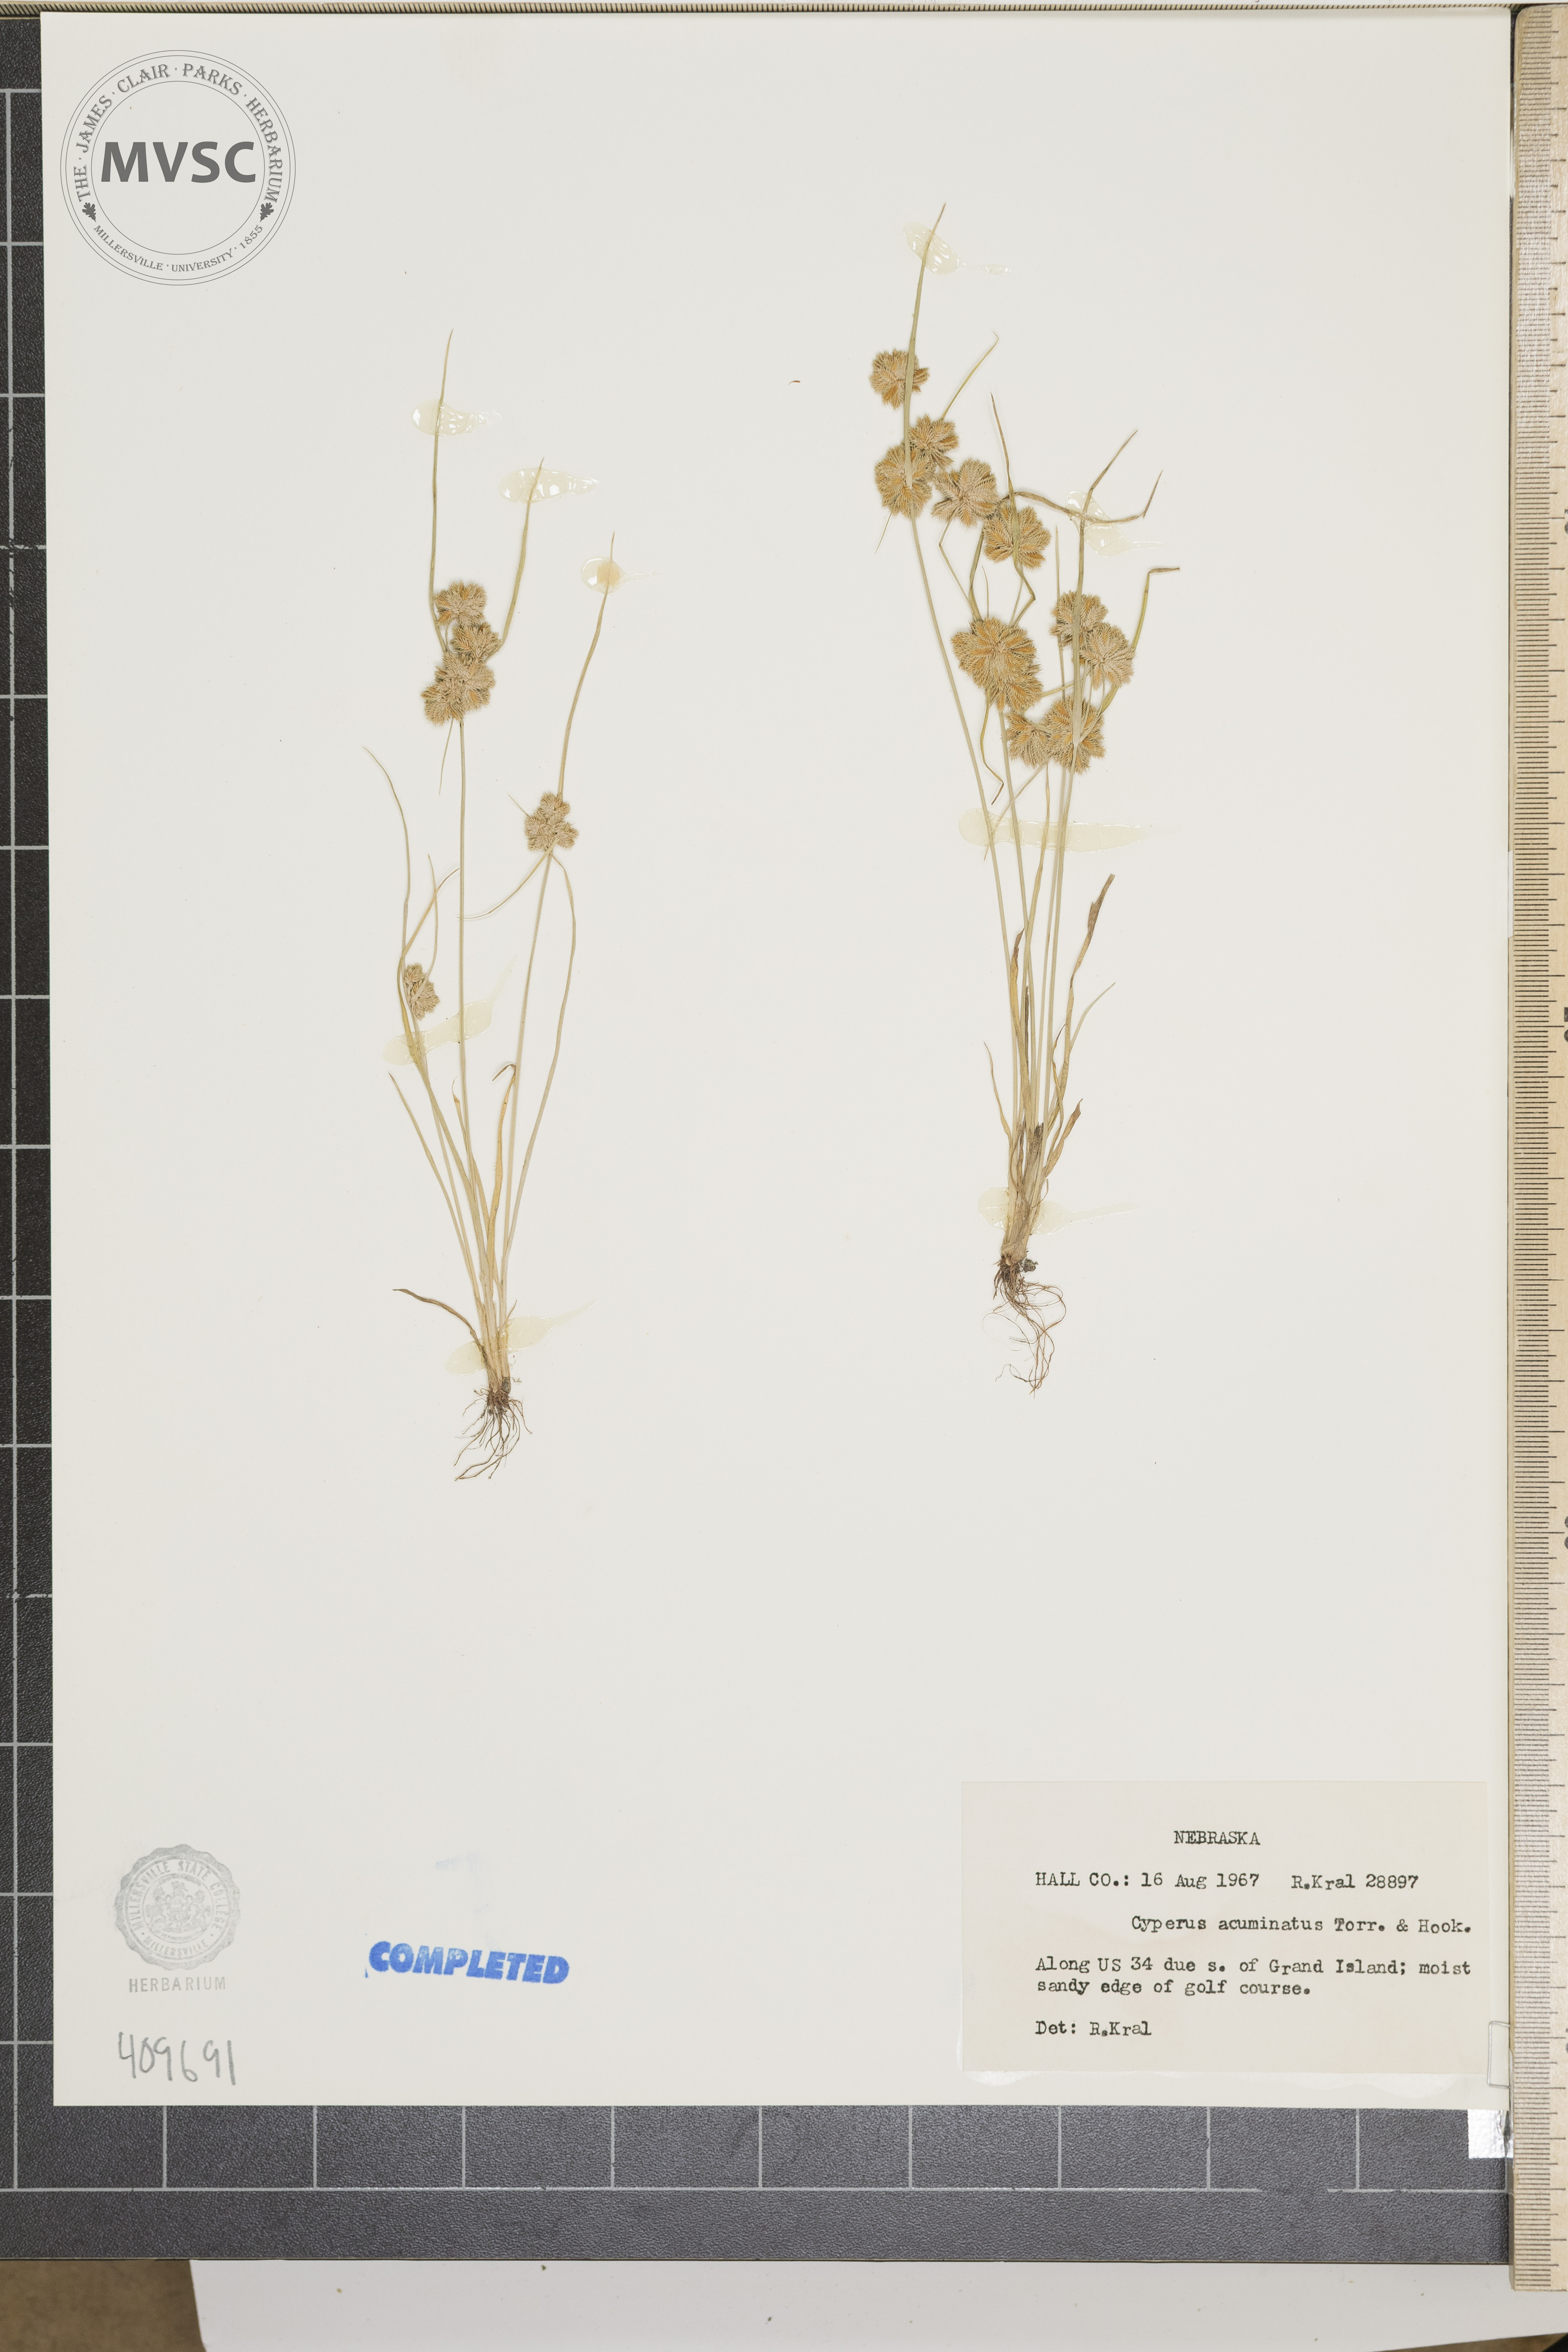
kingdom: Plantae
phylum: Tracheophyta
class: Liliopsida
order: Poales
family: Cyperaceae
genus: Cyperus
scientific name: Cyperus acuminatus
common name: Short-pointed cyperus
